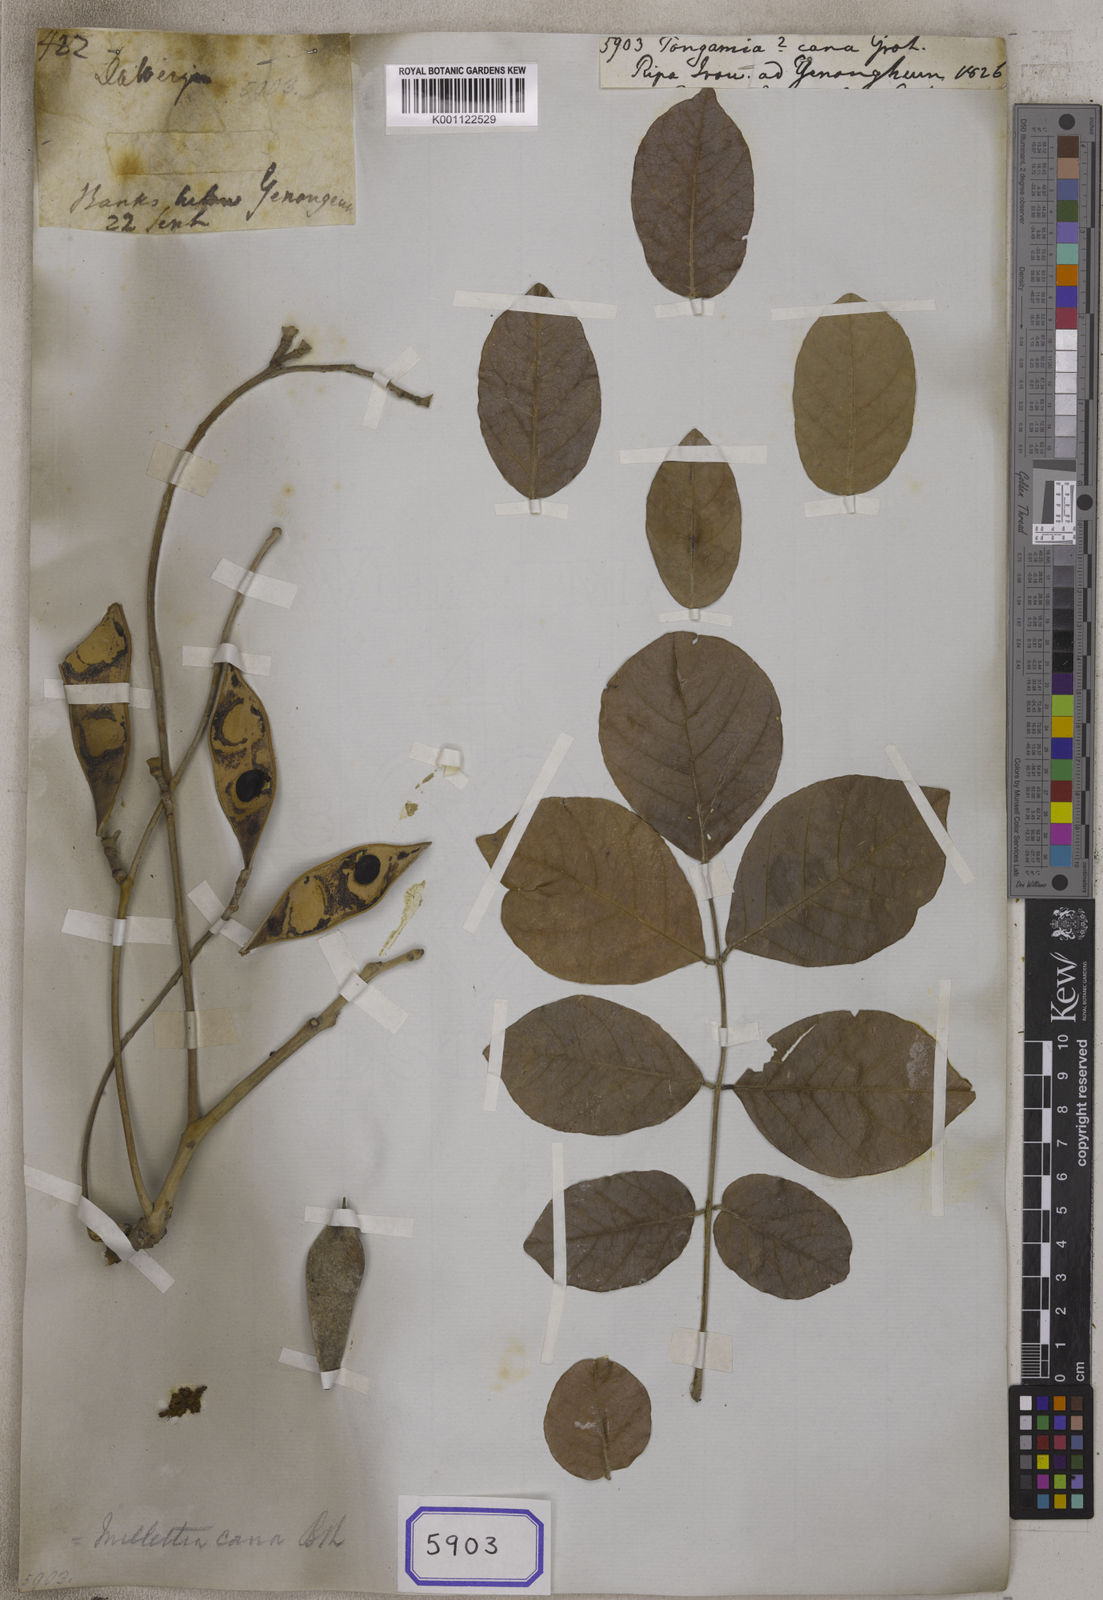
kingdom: Plantae
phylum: Tracheophyta
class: Magnoliopsida
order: Fabales
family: Fabaceae
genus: Millettia
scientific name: Millettia cana
